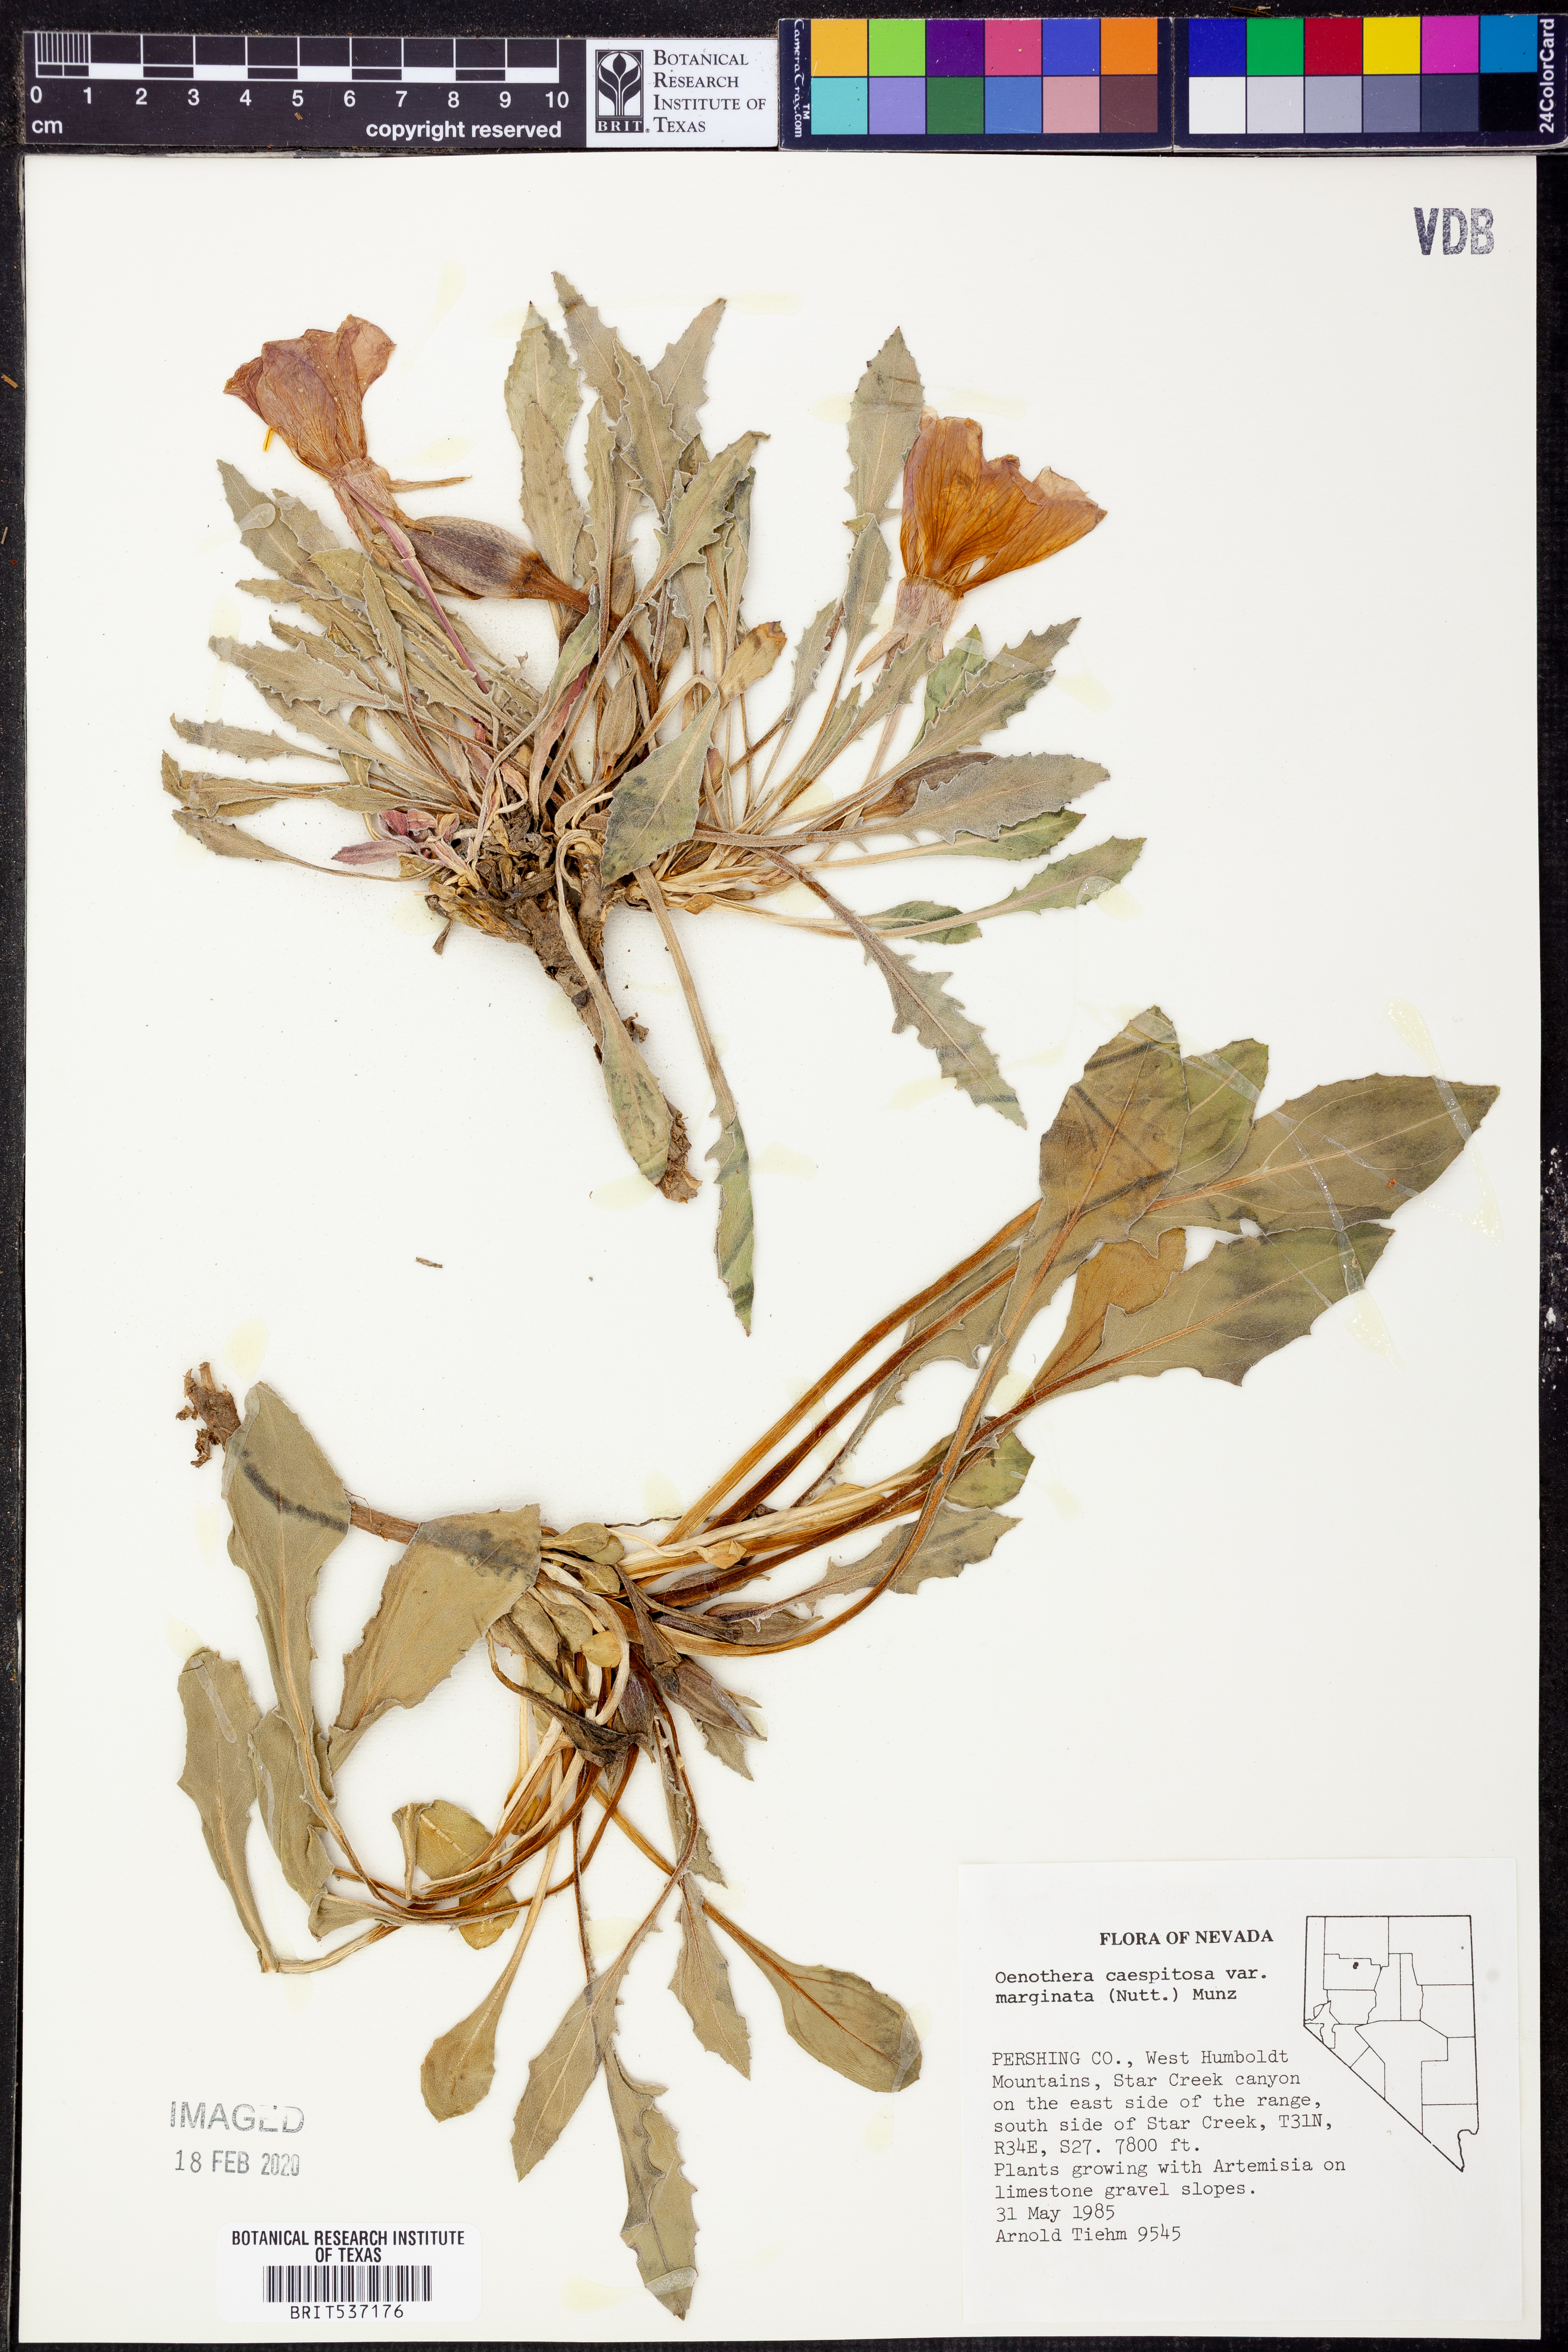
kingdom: Plantae
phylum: Tracheophyta
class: Magnoliopsida
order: Myrtales
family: Onagraceae
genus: Oenothera
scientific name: Oenothera cespitosa
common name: Tufted evening-primrose
